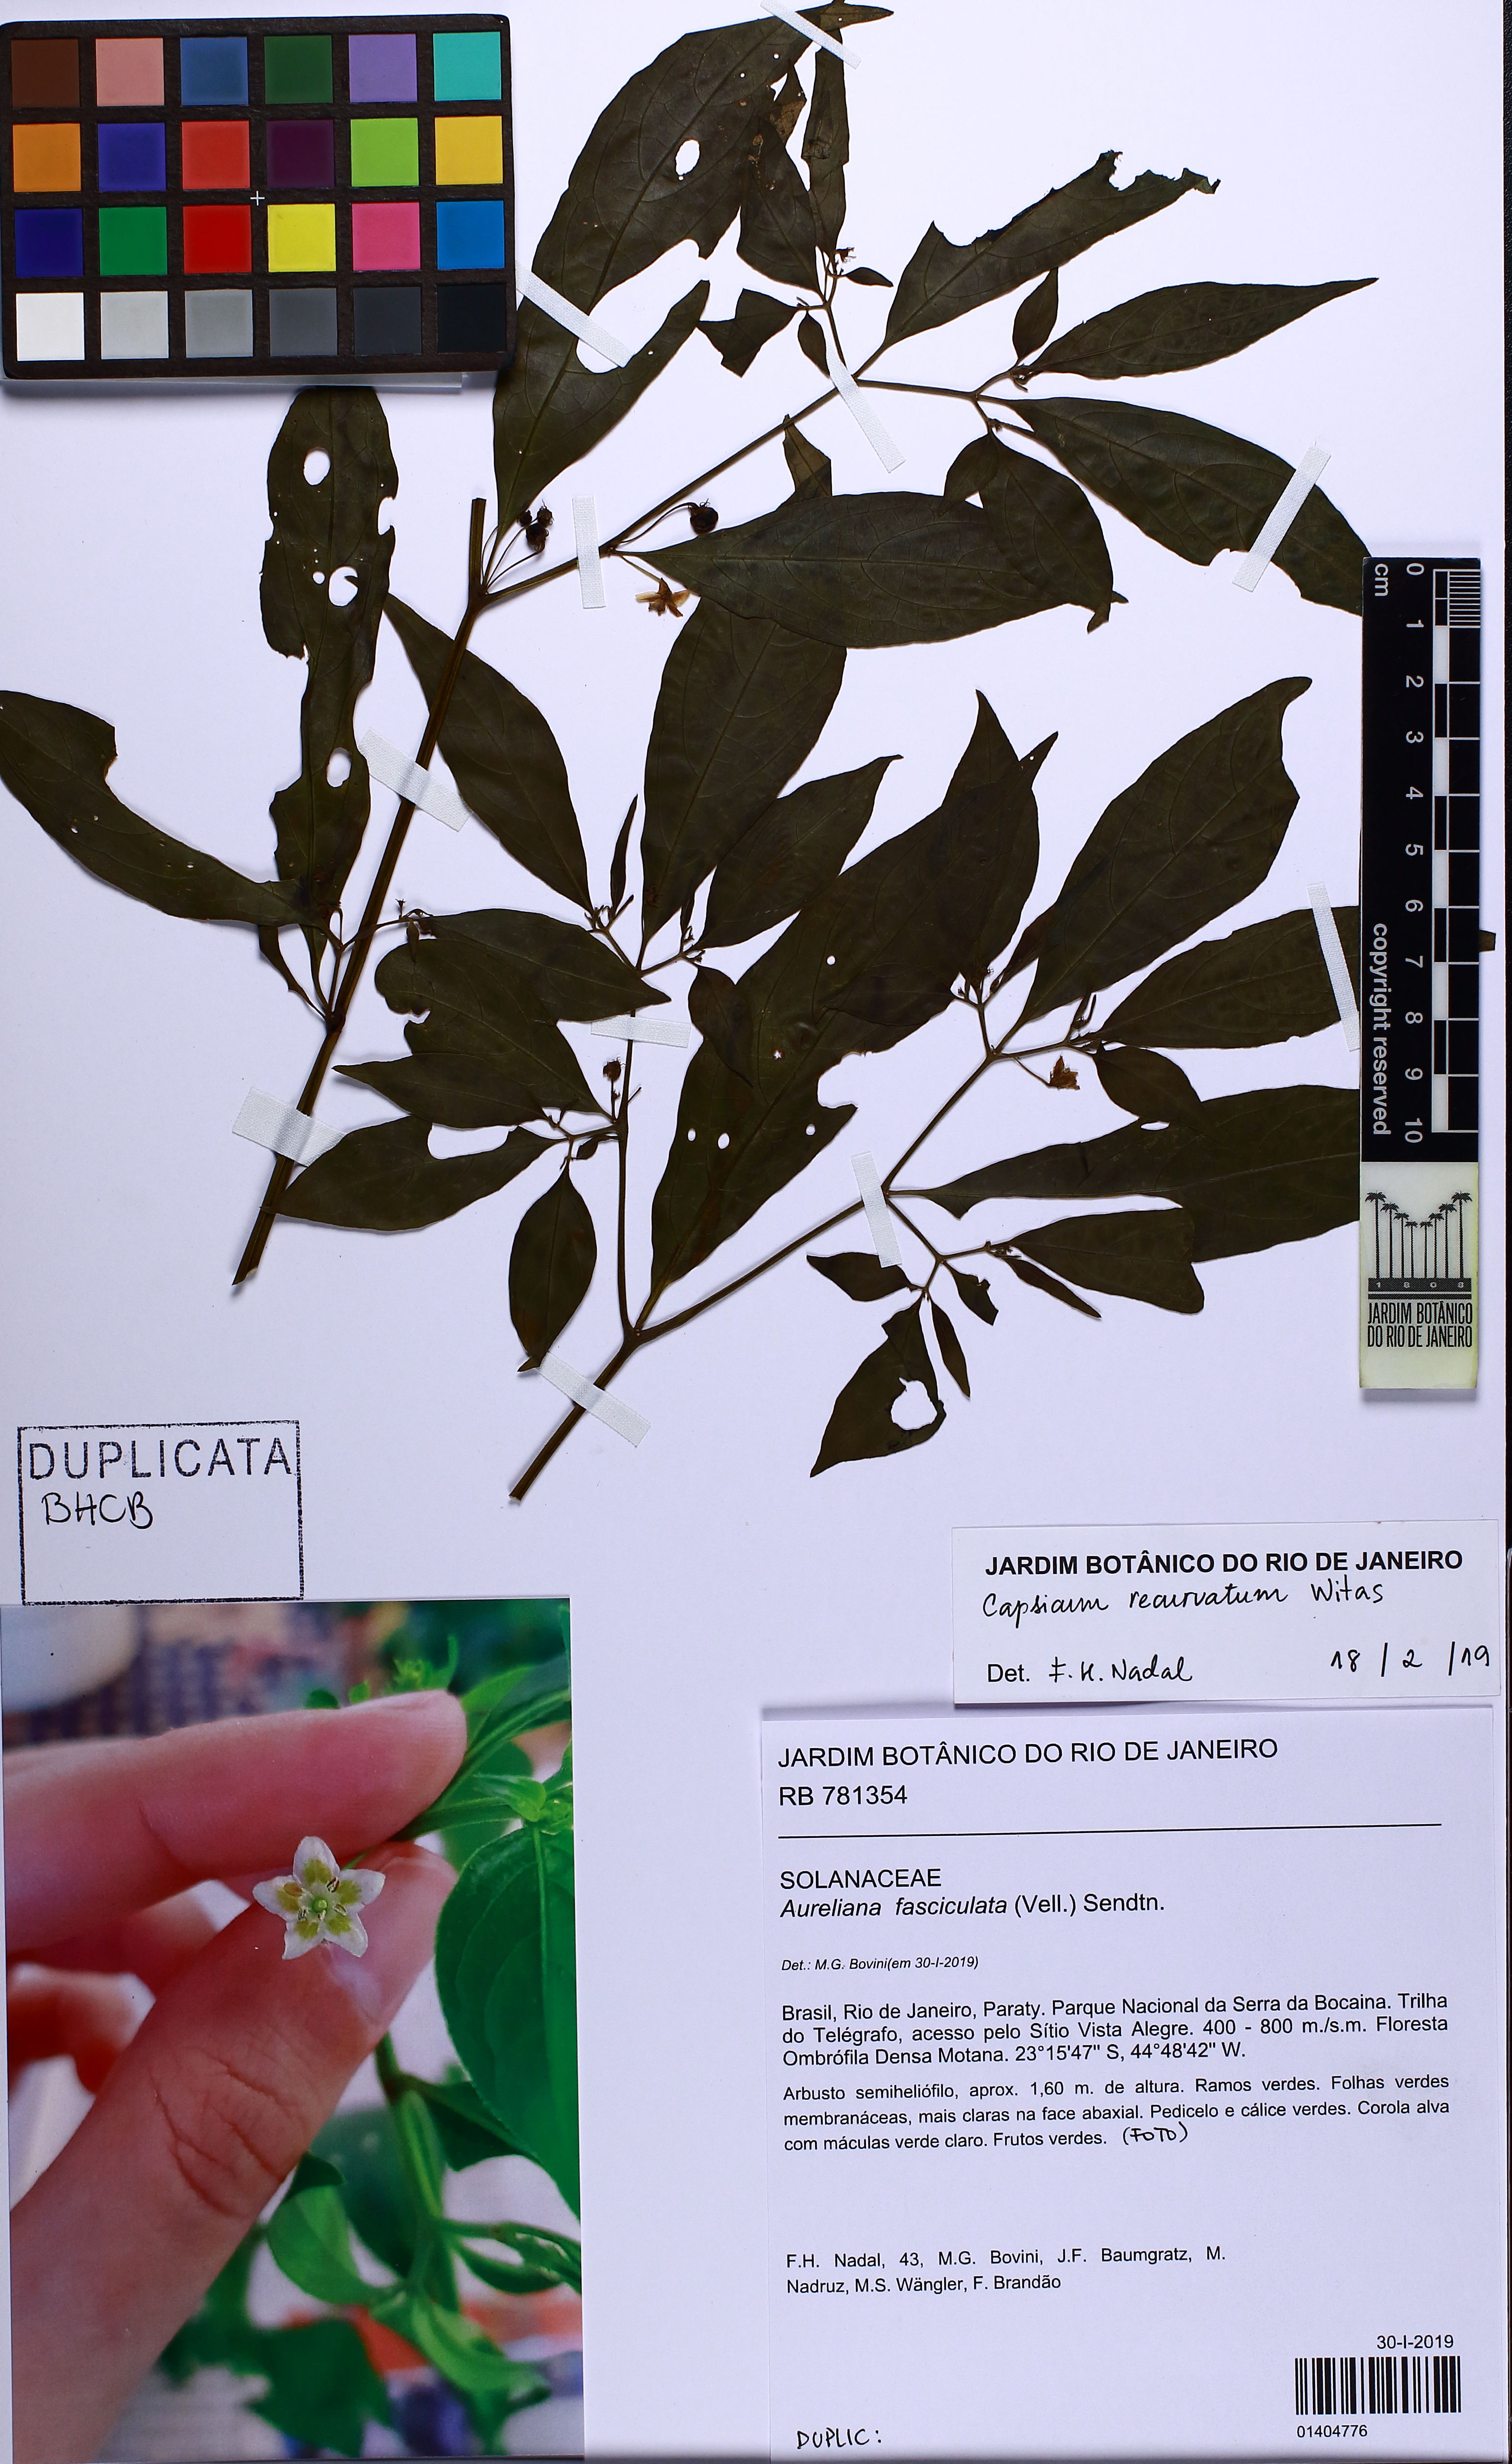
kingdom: Plantae
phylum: Tracheophyta
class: Magnoliopsida
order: Solanales
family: Solanaceae
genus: Athenaea
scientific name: Athenaea fasciculata
